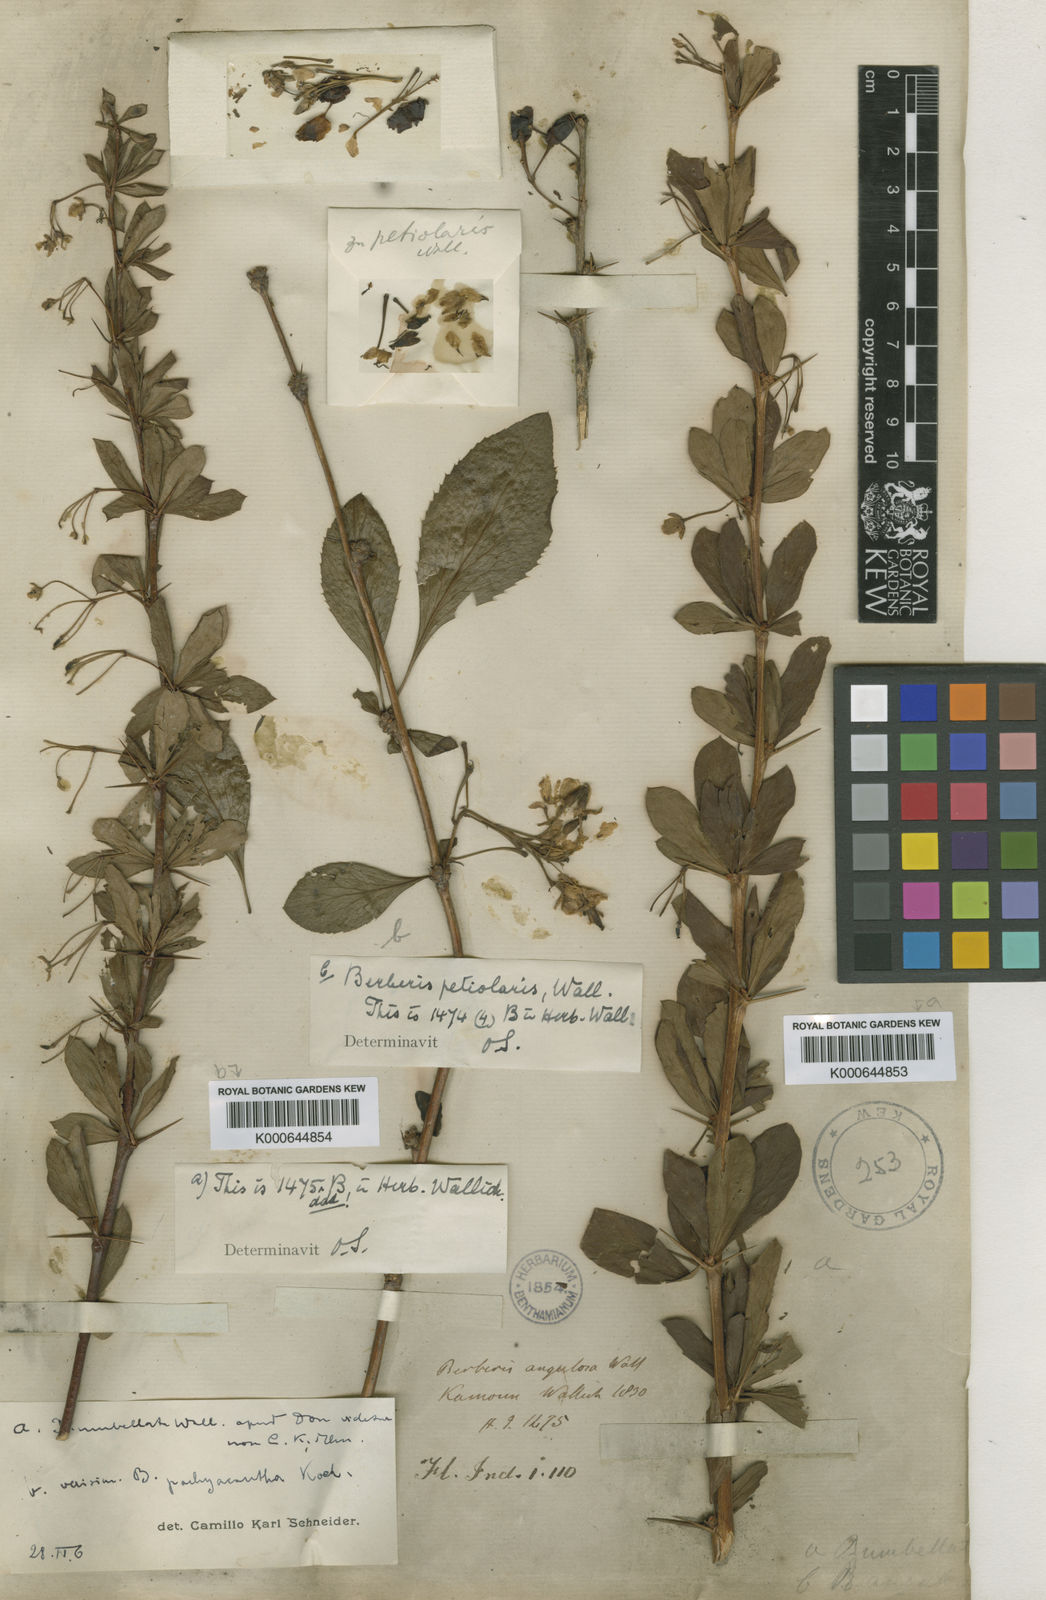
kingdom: Plantae
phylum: Tracheophyta
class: Magnoliopsida
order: Ranunculales
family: Berberidaceae
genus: Berberis
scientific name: Berberis umbellata
